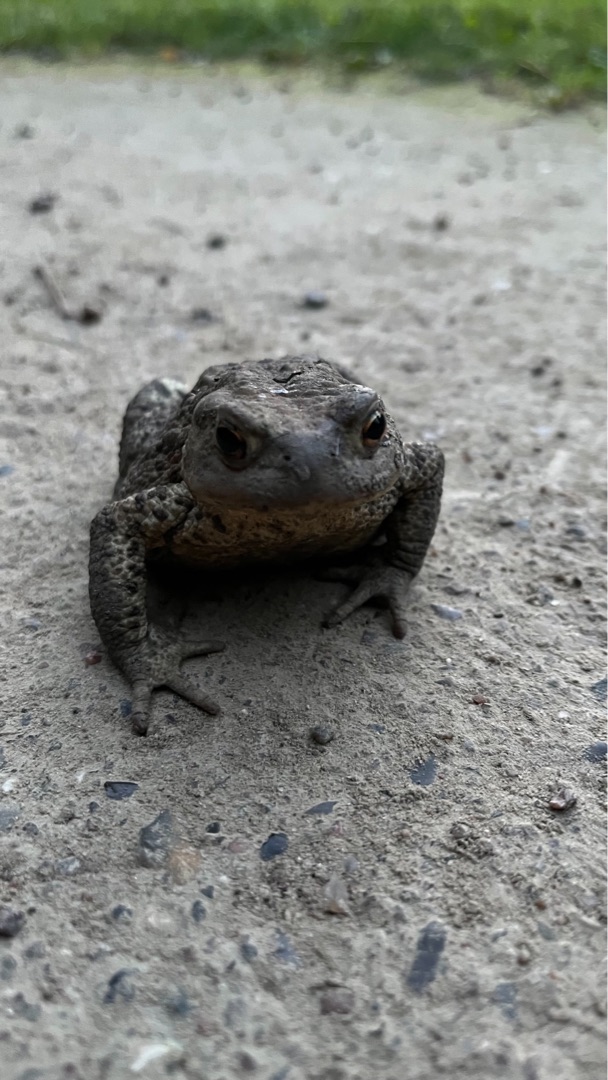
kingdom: Animalia
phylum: Chordata
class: Amphibia
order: Anura
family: Bufonidae
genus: Bufo
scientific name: Bufo bufo
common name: Skrubtudse
